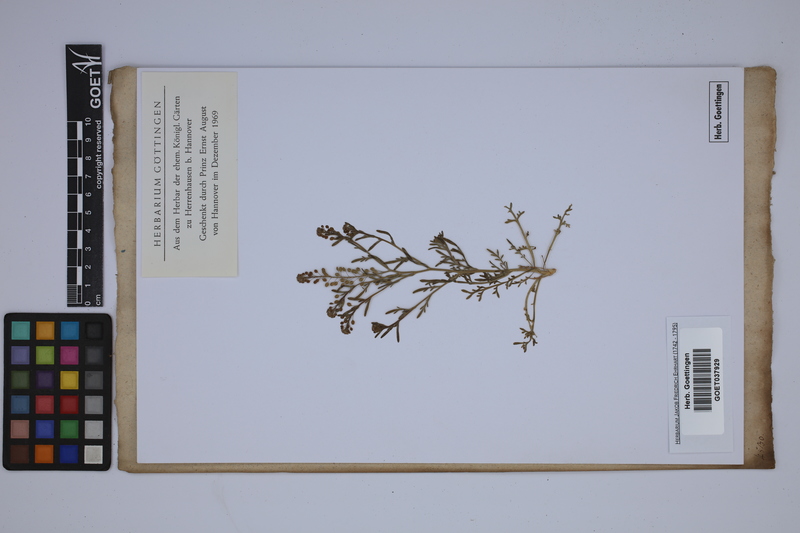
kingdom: Plantae
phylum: Tracheophyta
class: Magnoliopsida
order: Brassicales
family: Brassicaceae
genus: Lepidium
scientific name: Lepidium sativum
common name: Garden cress
